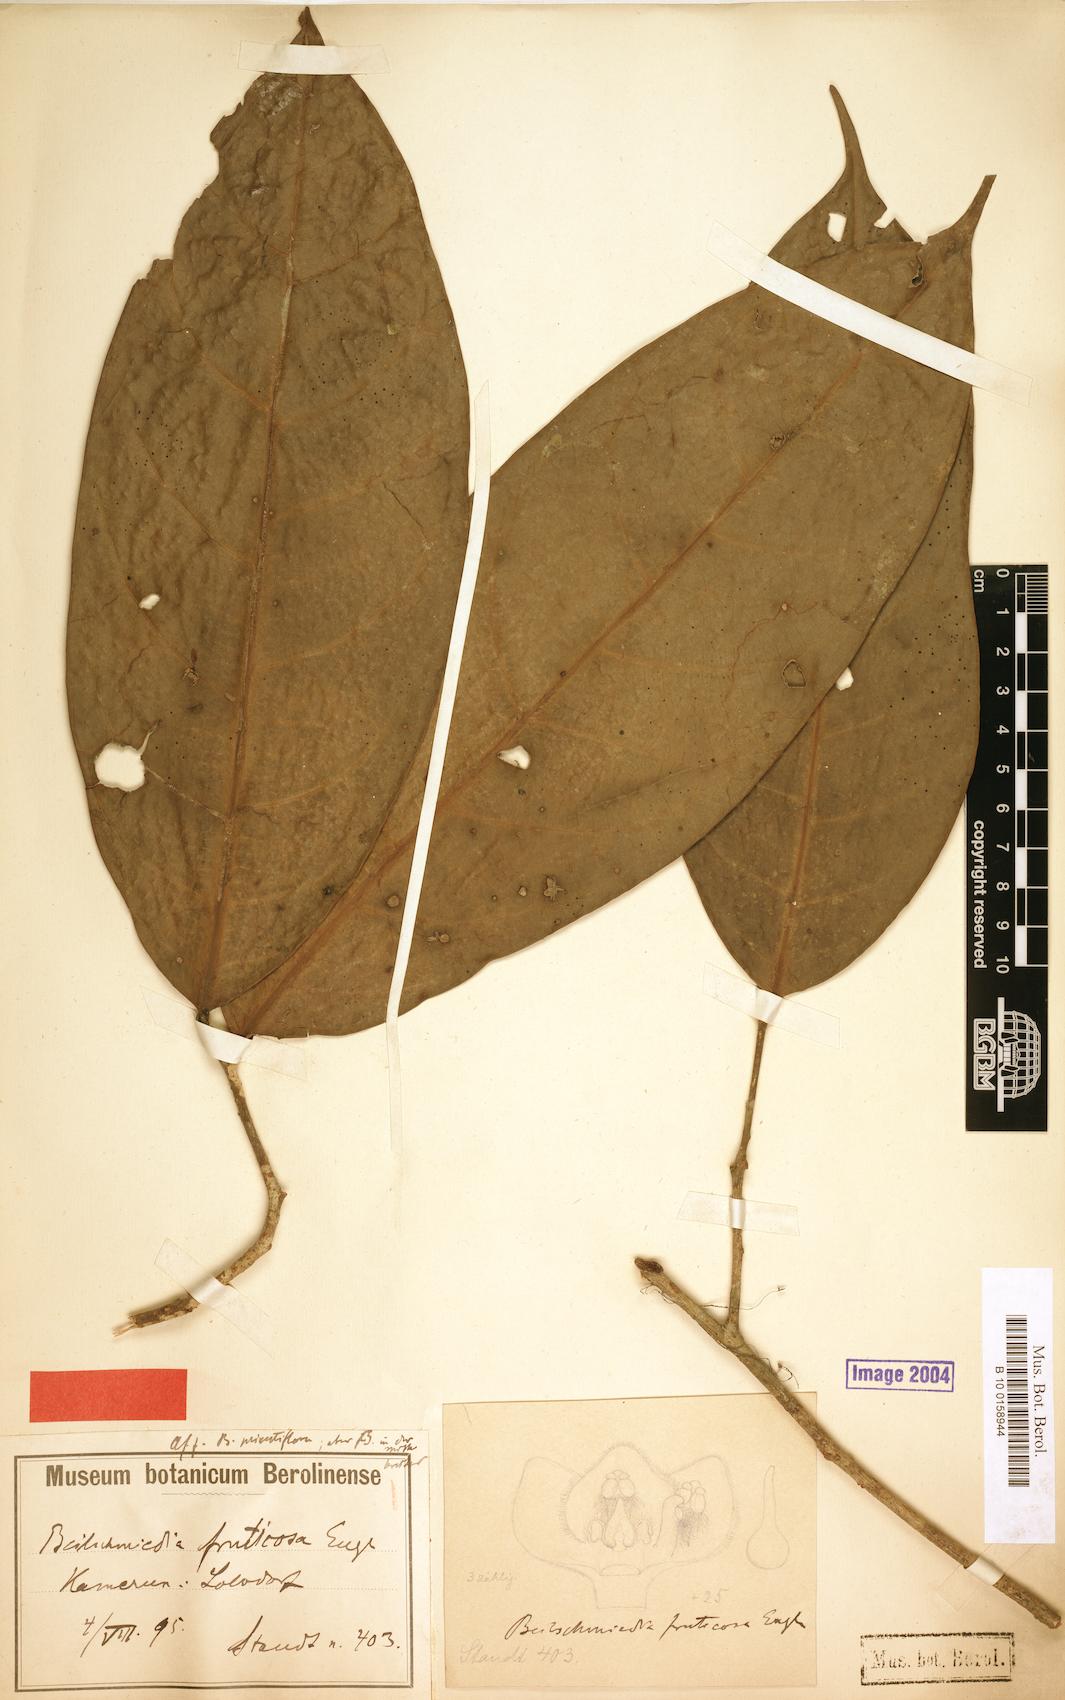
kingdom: Plantae
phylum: Tracheophyta
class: Magnoliopsida
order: Laurales
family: Lauraceae
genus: Beilschmiedia
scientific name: Beilschmiedia fruticosa
